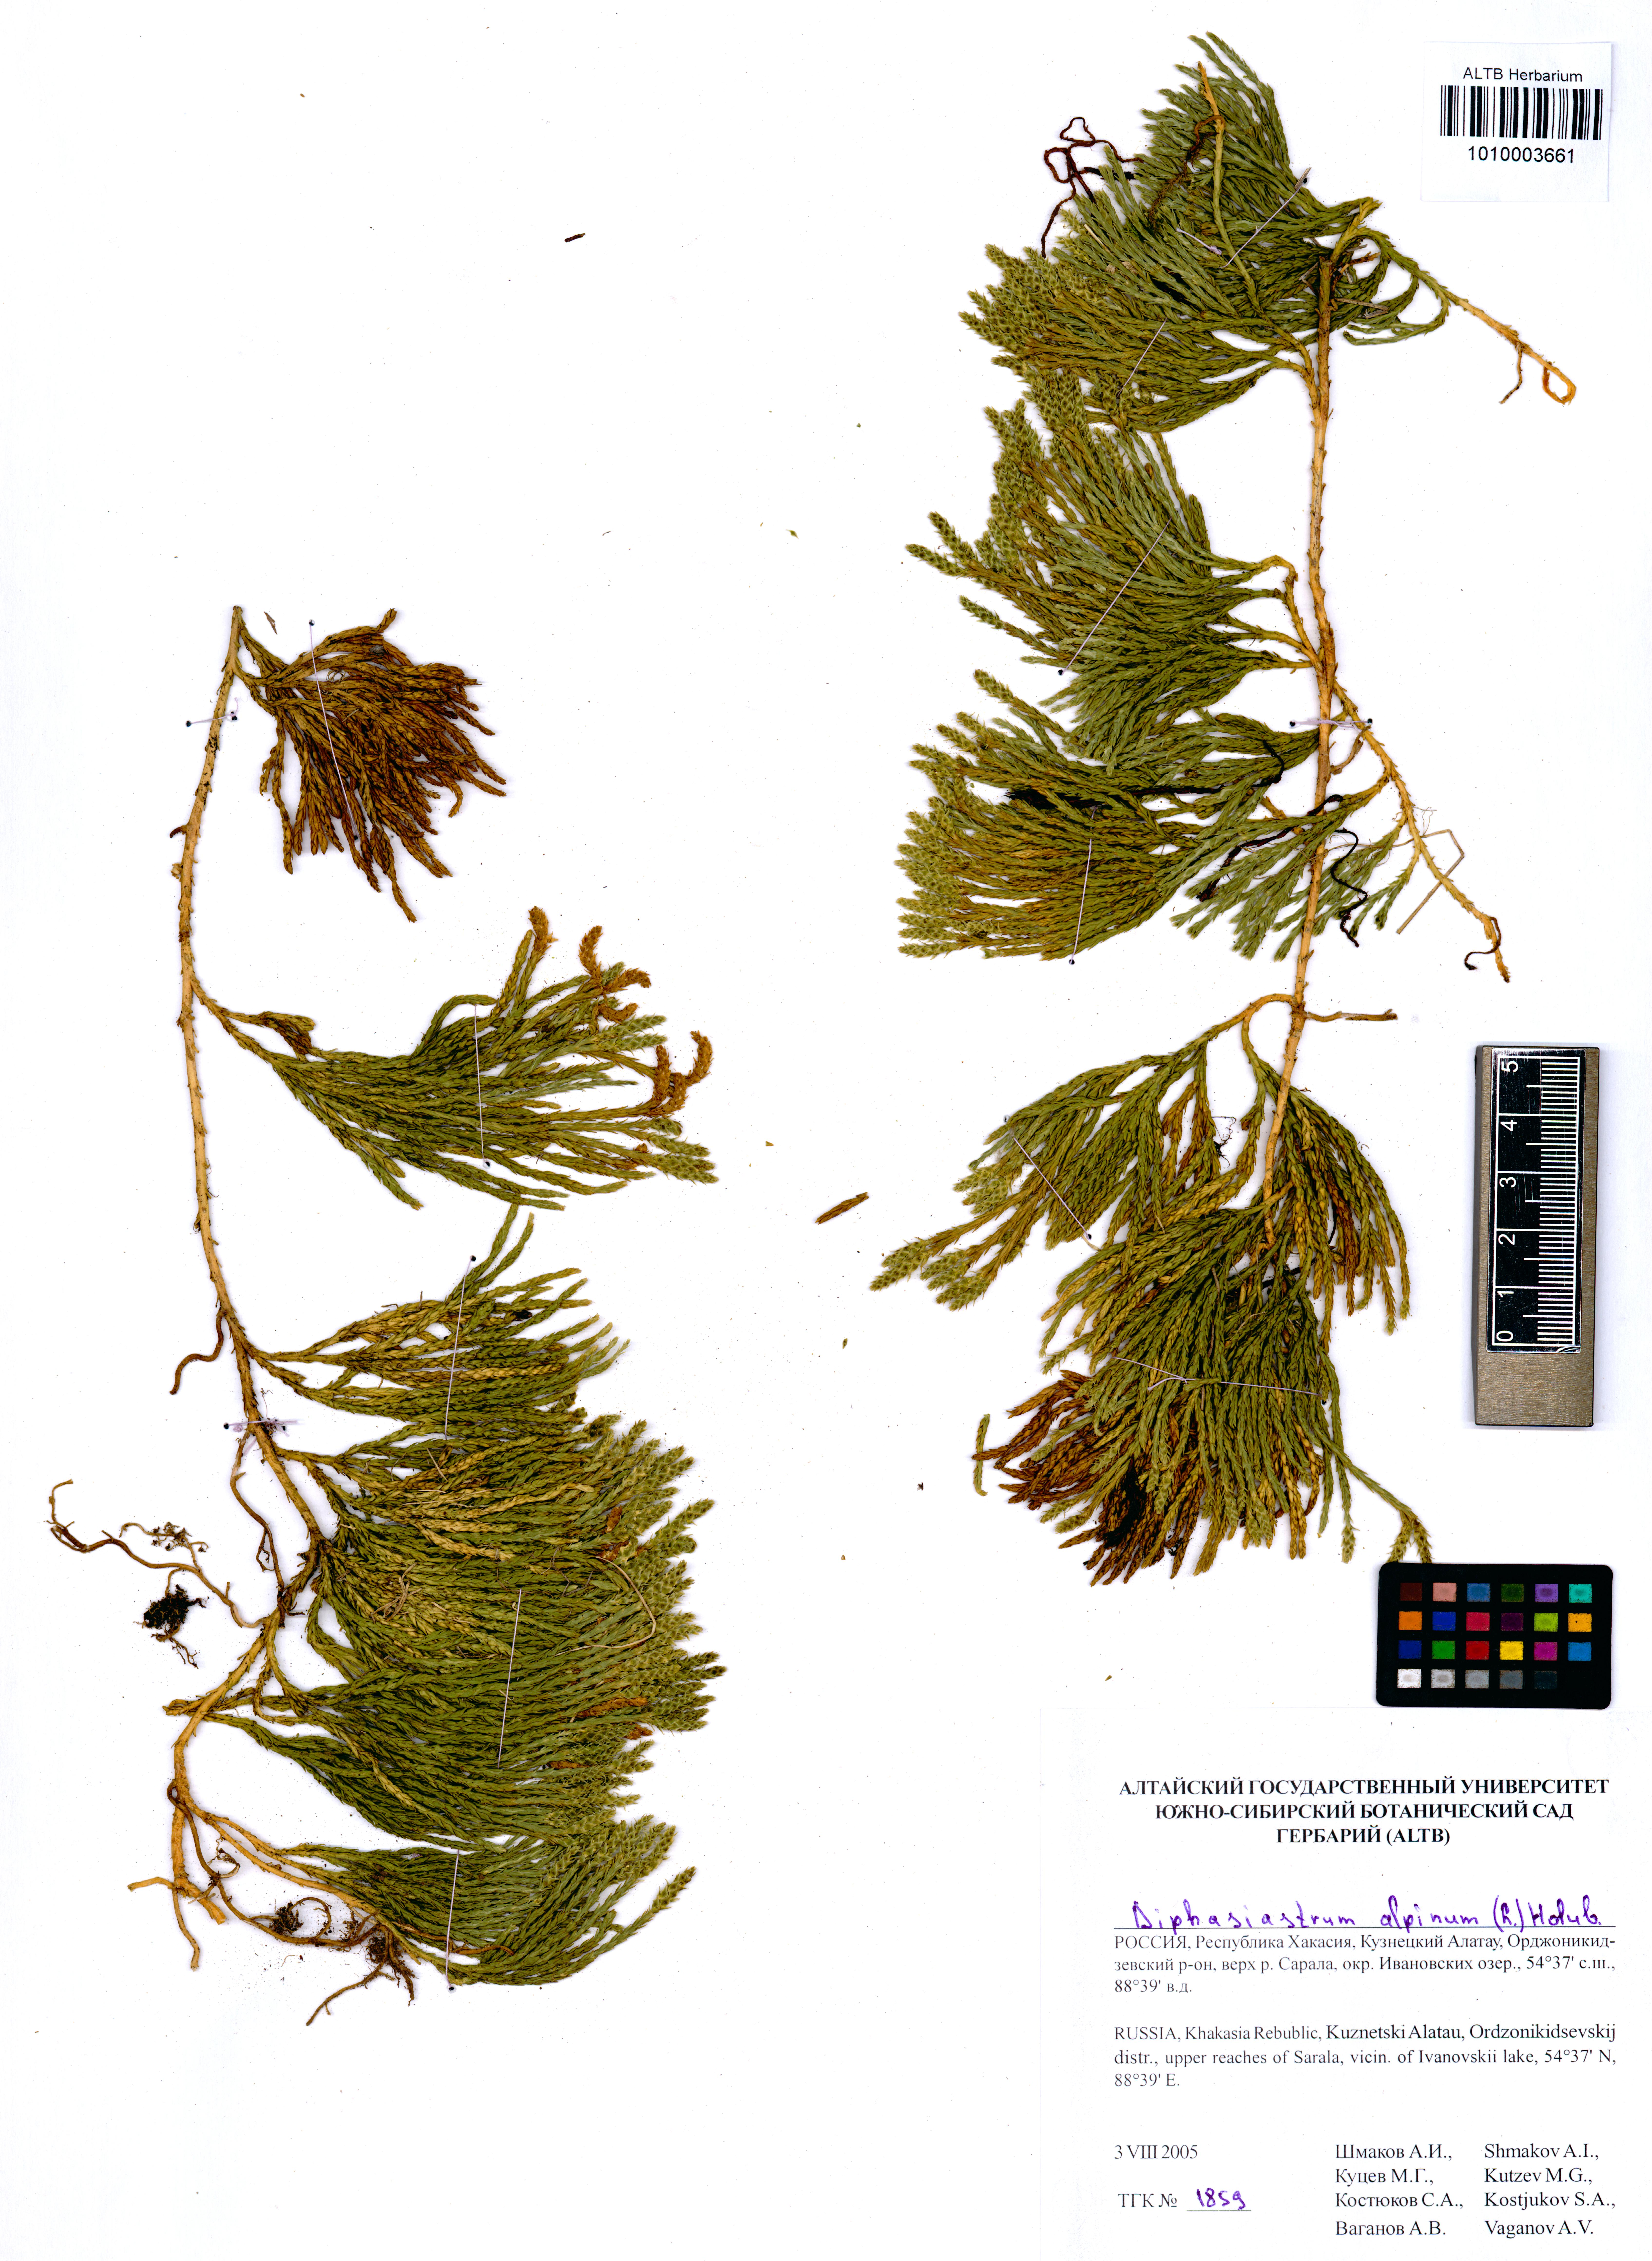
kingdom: Plantae
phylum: Tracheophyta
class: Lycopodiopsida
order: Lycopodiales
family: Lycopodiaceae
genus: Diphasiastrum
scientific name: Diphasiastrum alpinum
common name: Alpine clubmoss
